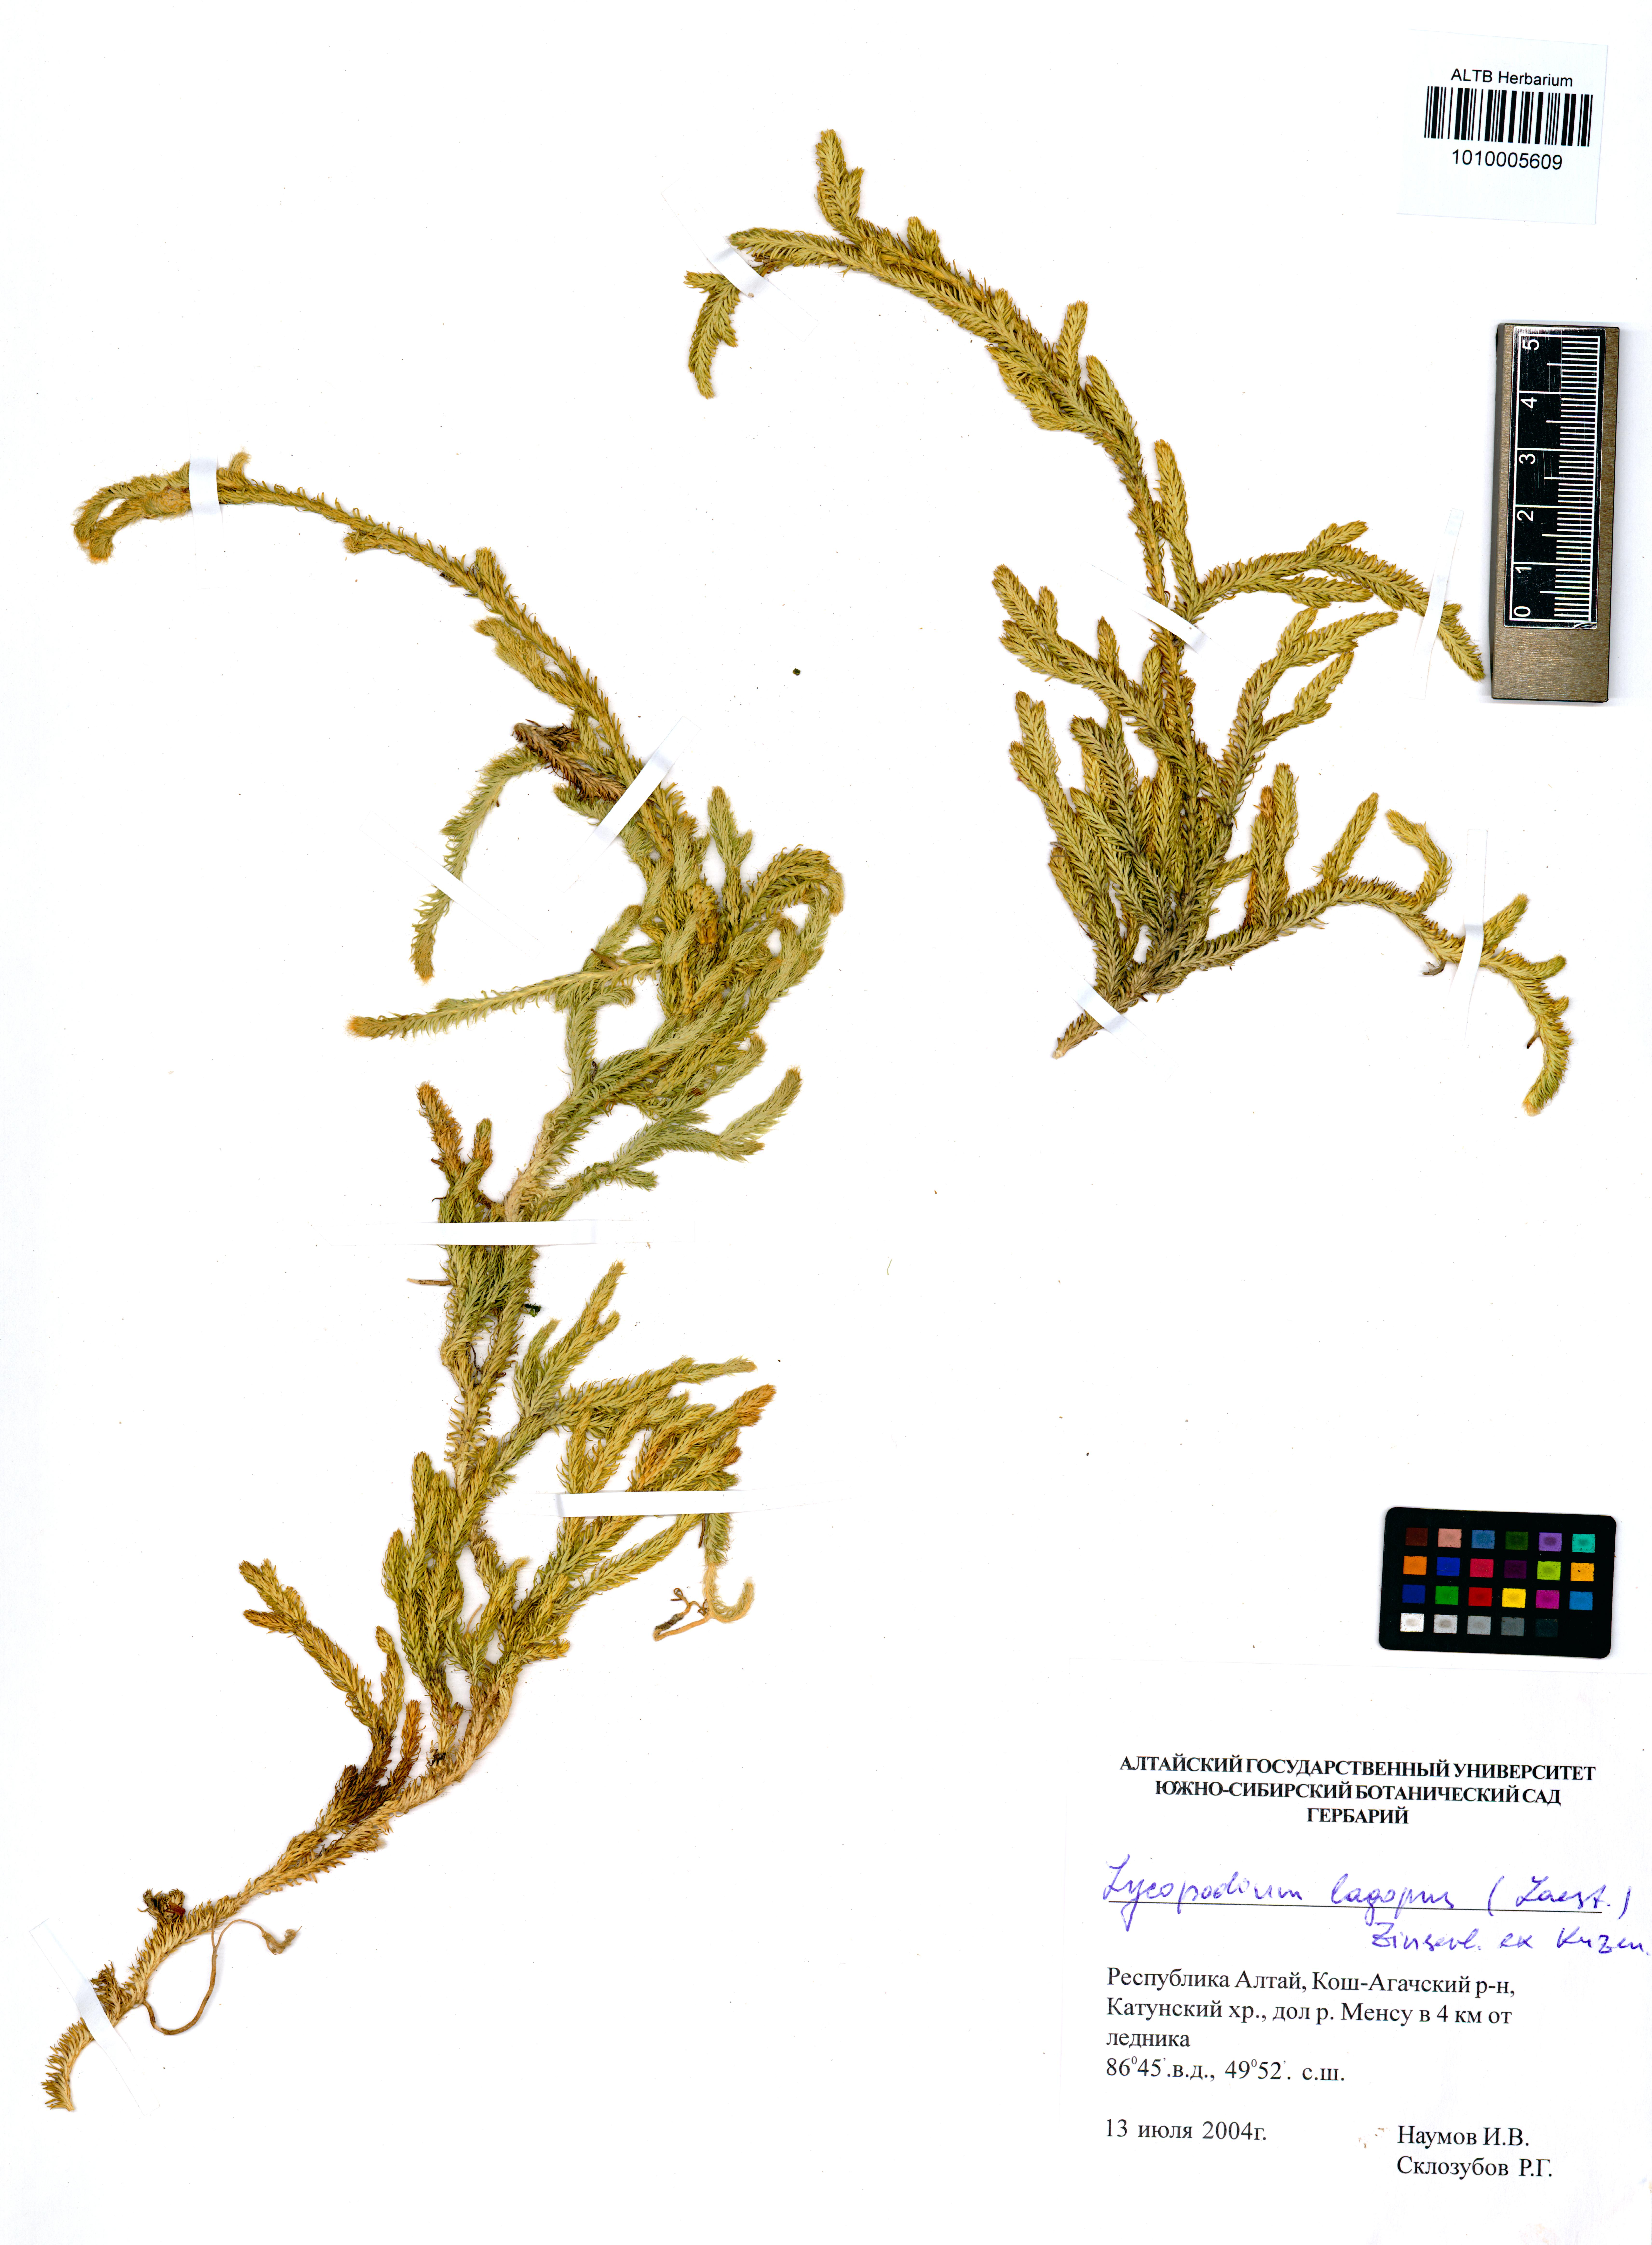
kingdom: Plantae
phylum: Tracheophyta
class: Lycopodiopsida
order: Lycopodiales
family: Lycopodiaceae
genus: Lycopodium
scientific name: Lycopodium lagopus
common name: One-cone clubmoss
